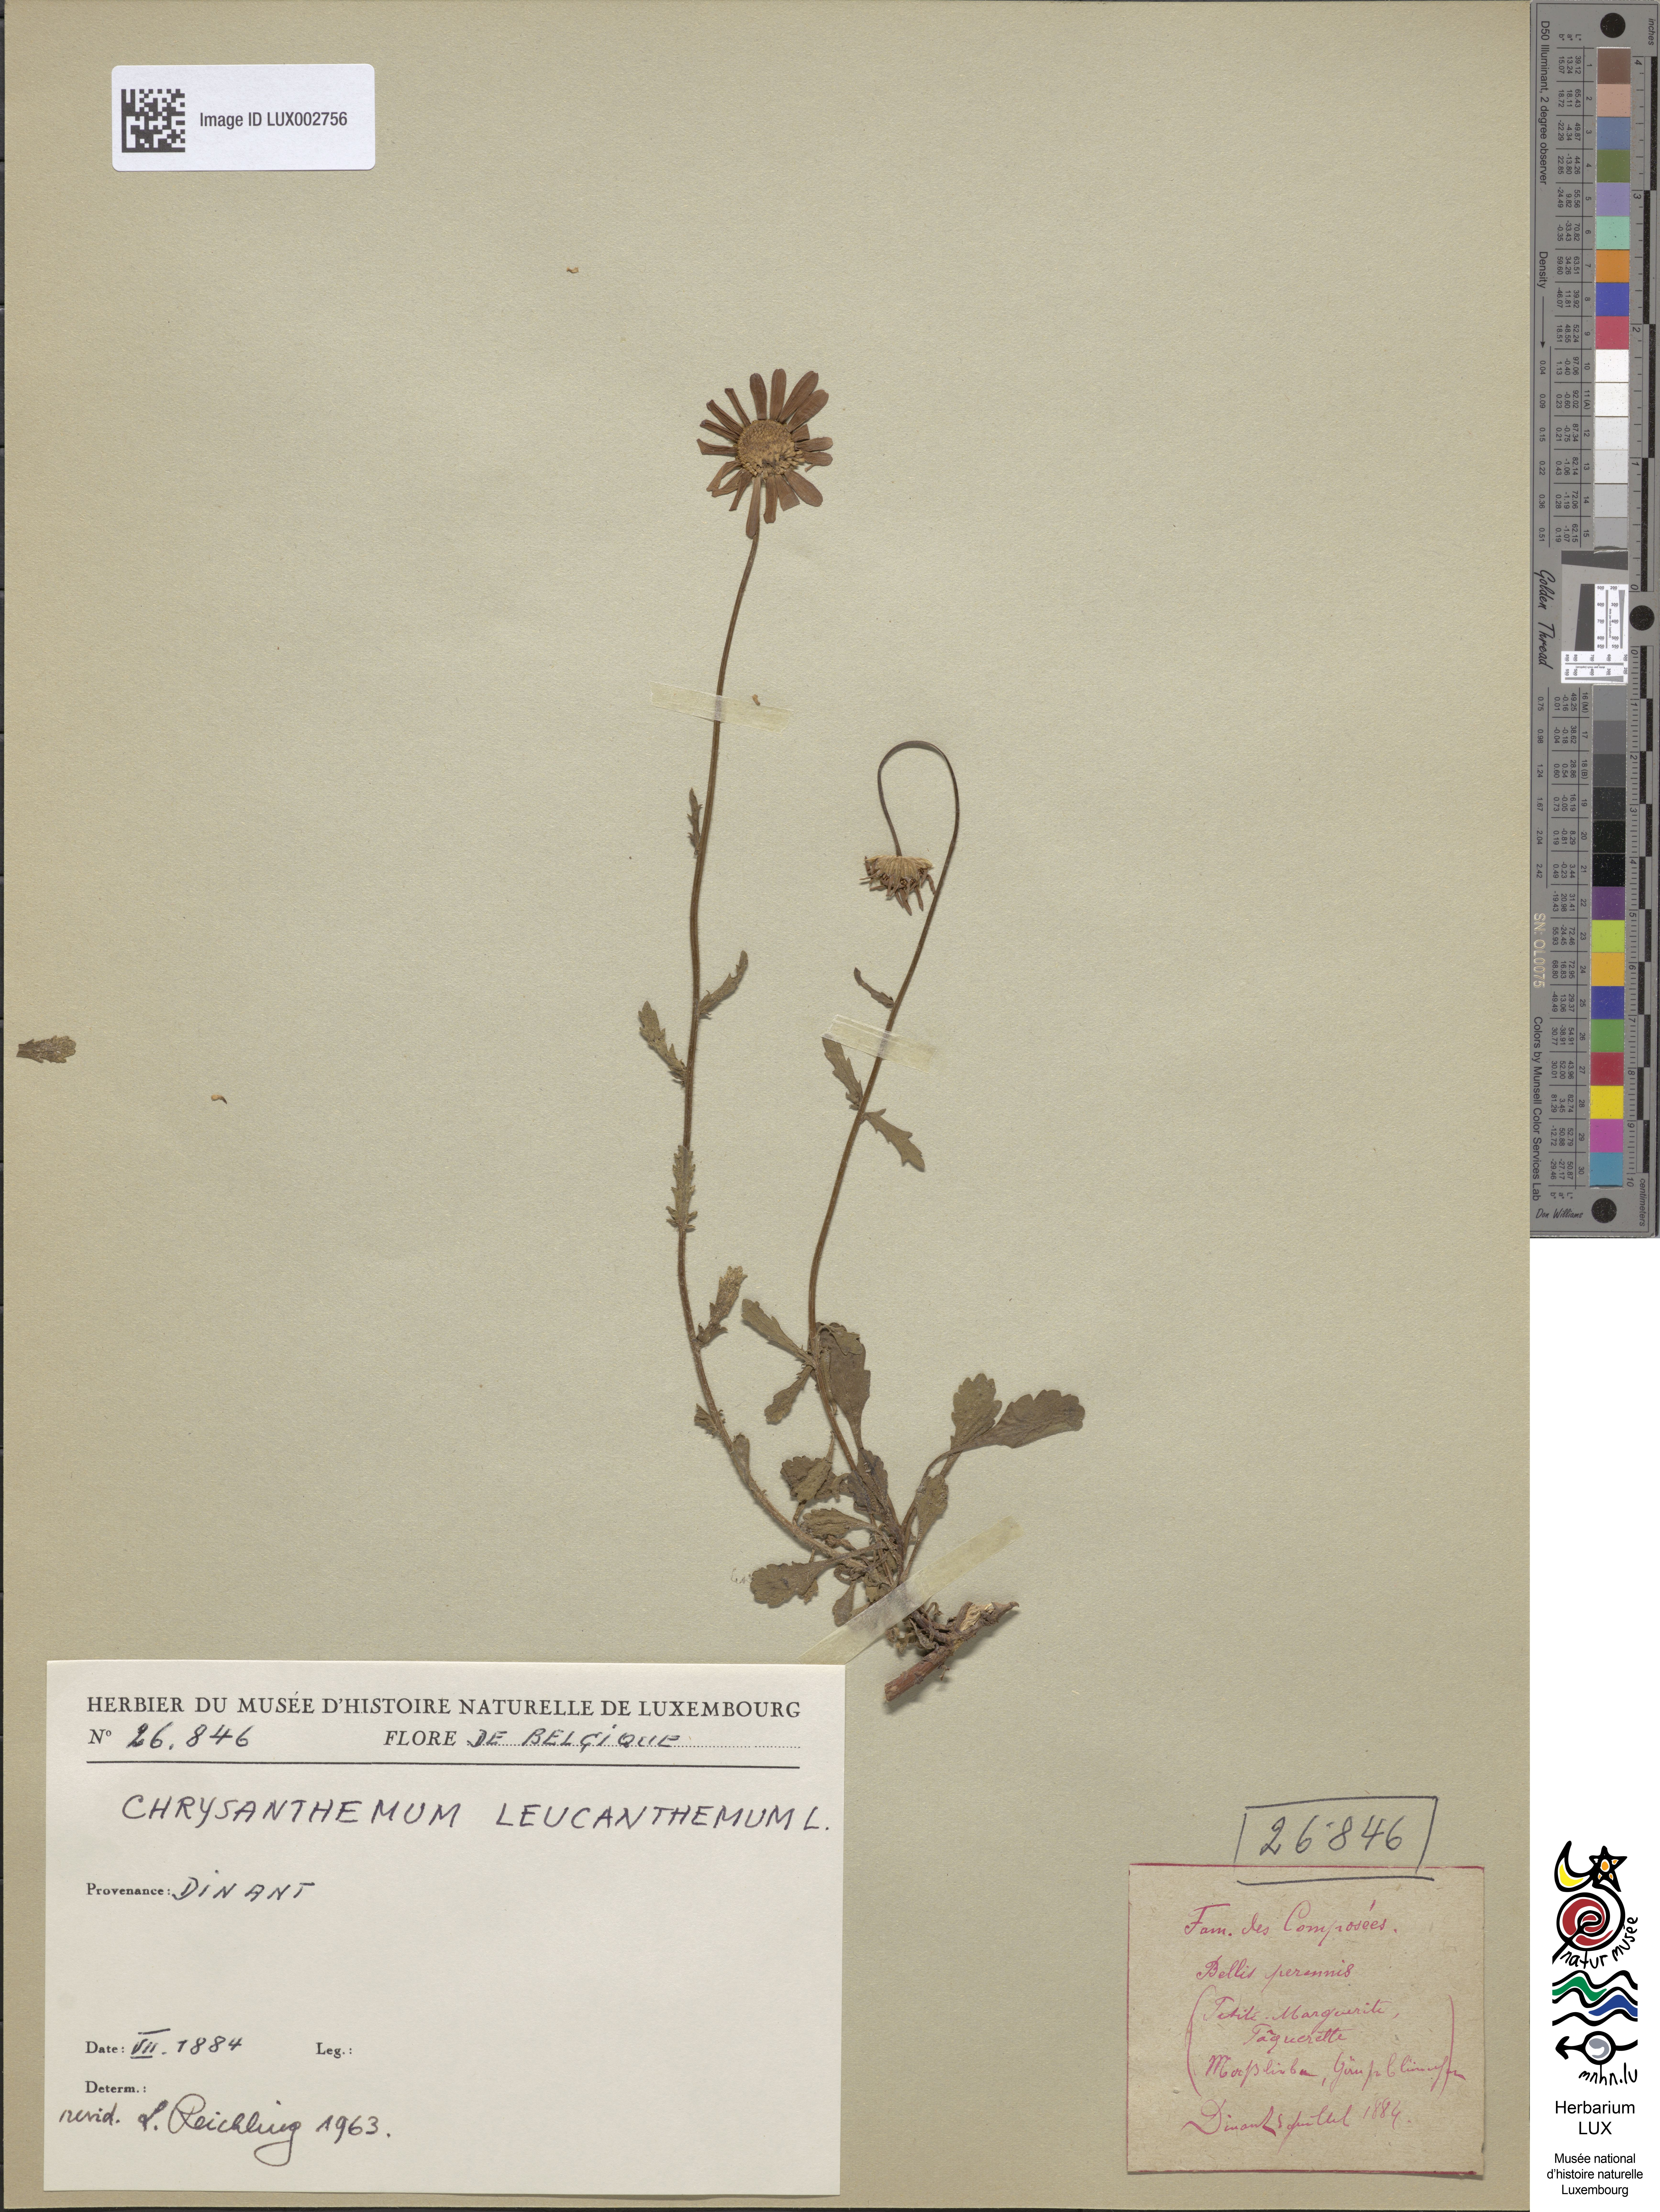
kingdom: Plantae
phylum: Tracheophyta
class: Magnoliopsida
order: Asterales
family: Asteraceae
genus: Bellis
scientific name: Bellis perennis
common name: Lawndaisy
